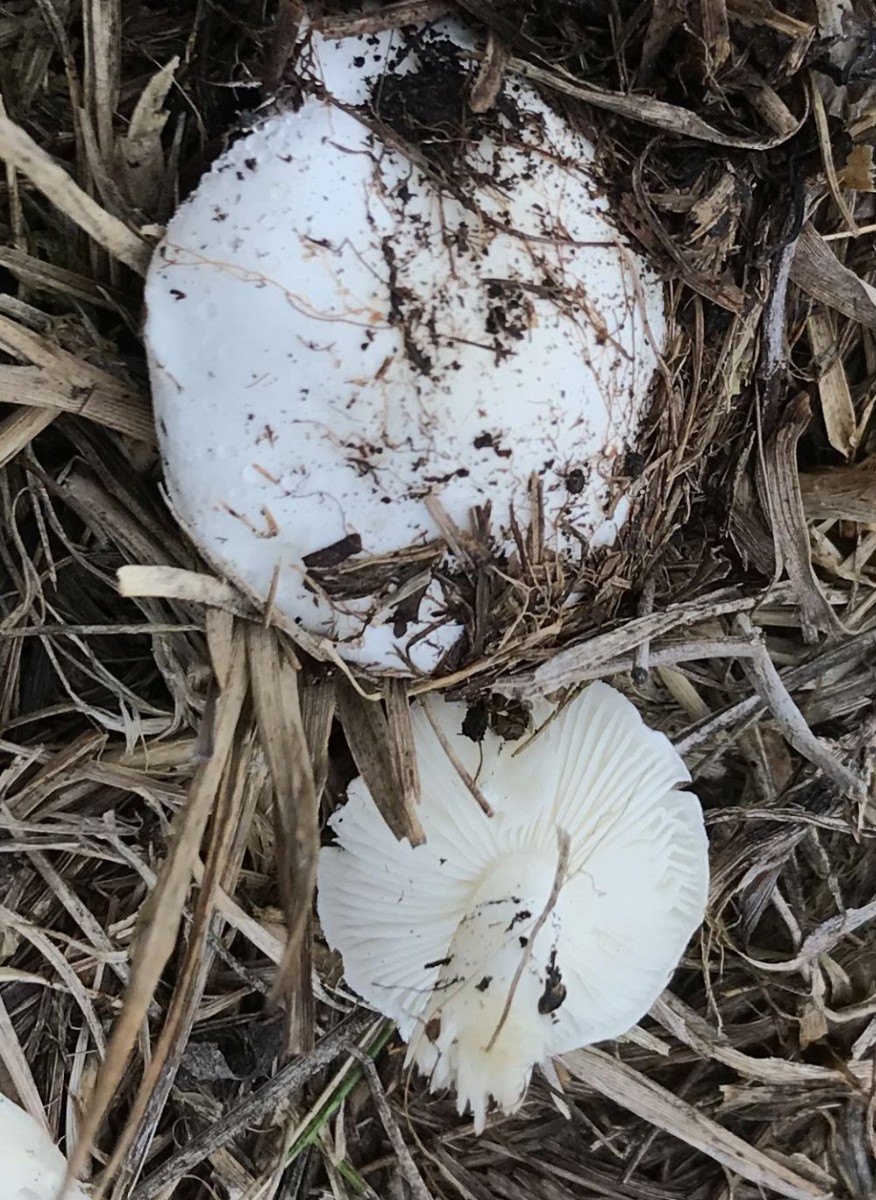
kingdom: Fungi
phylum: Basidiomycota
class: Agaricomycetes
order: Agaricales
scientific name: Agaricales
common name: champignonordenen
